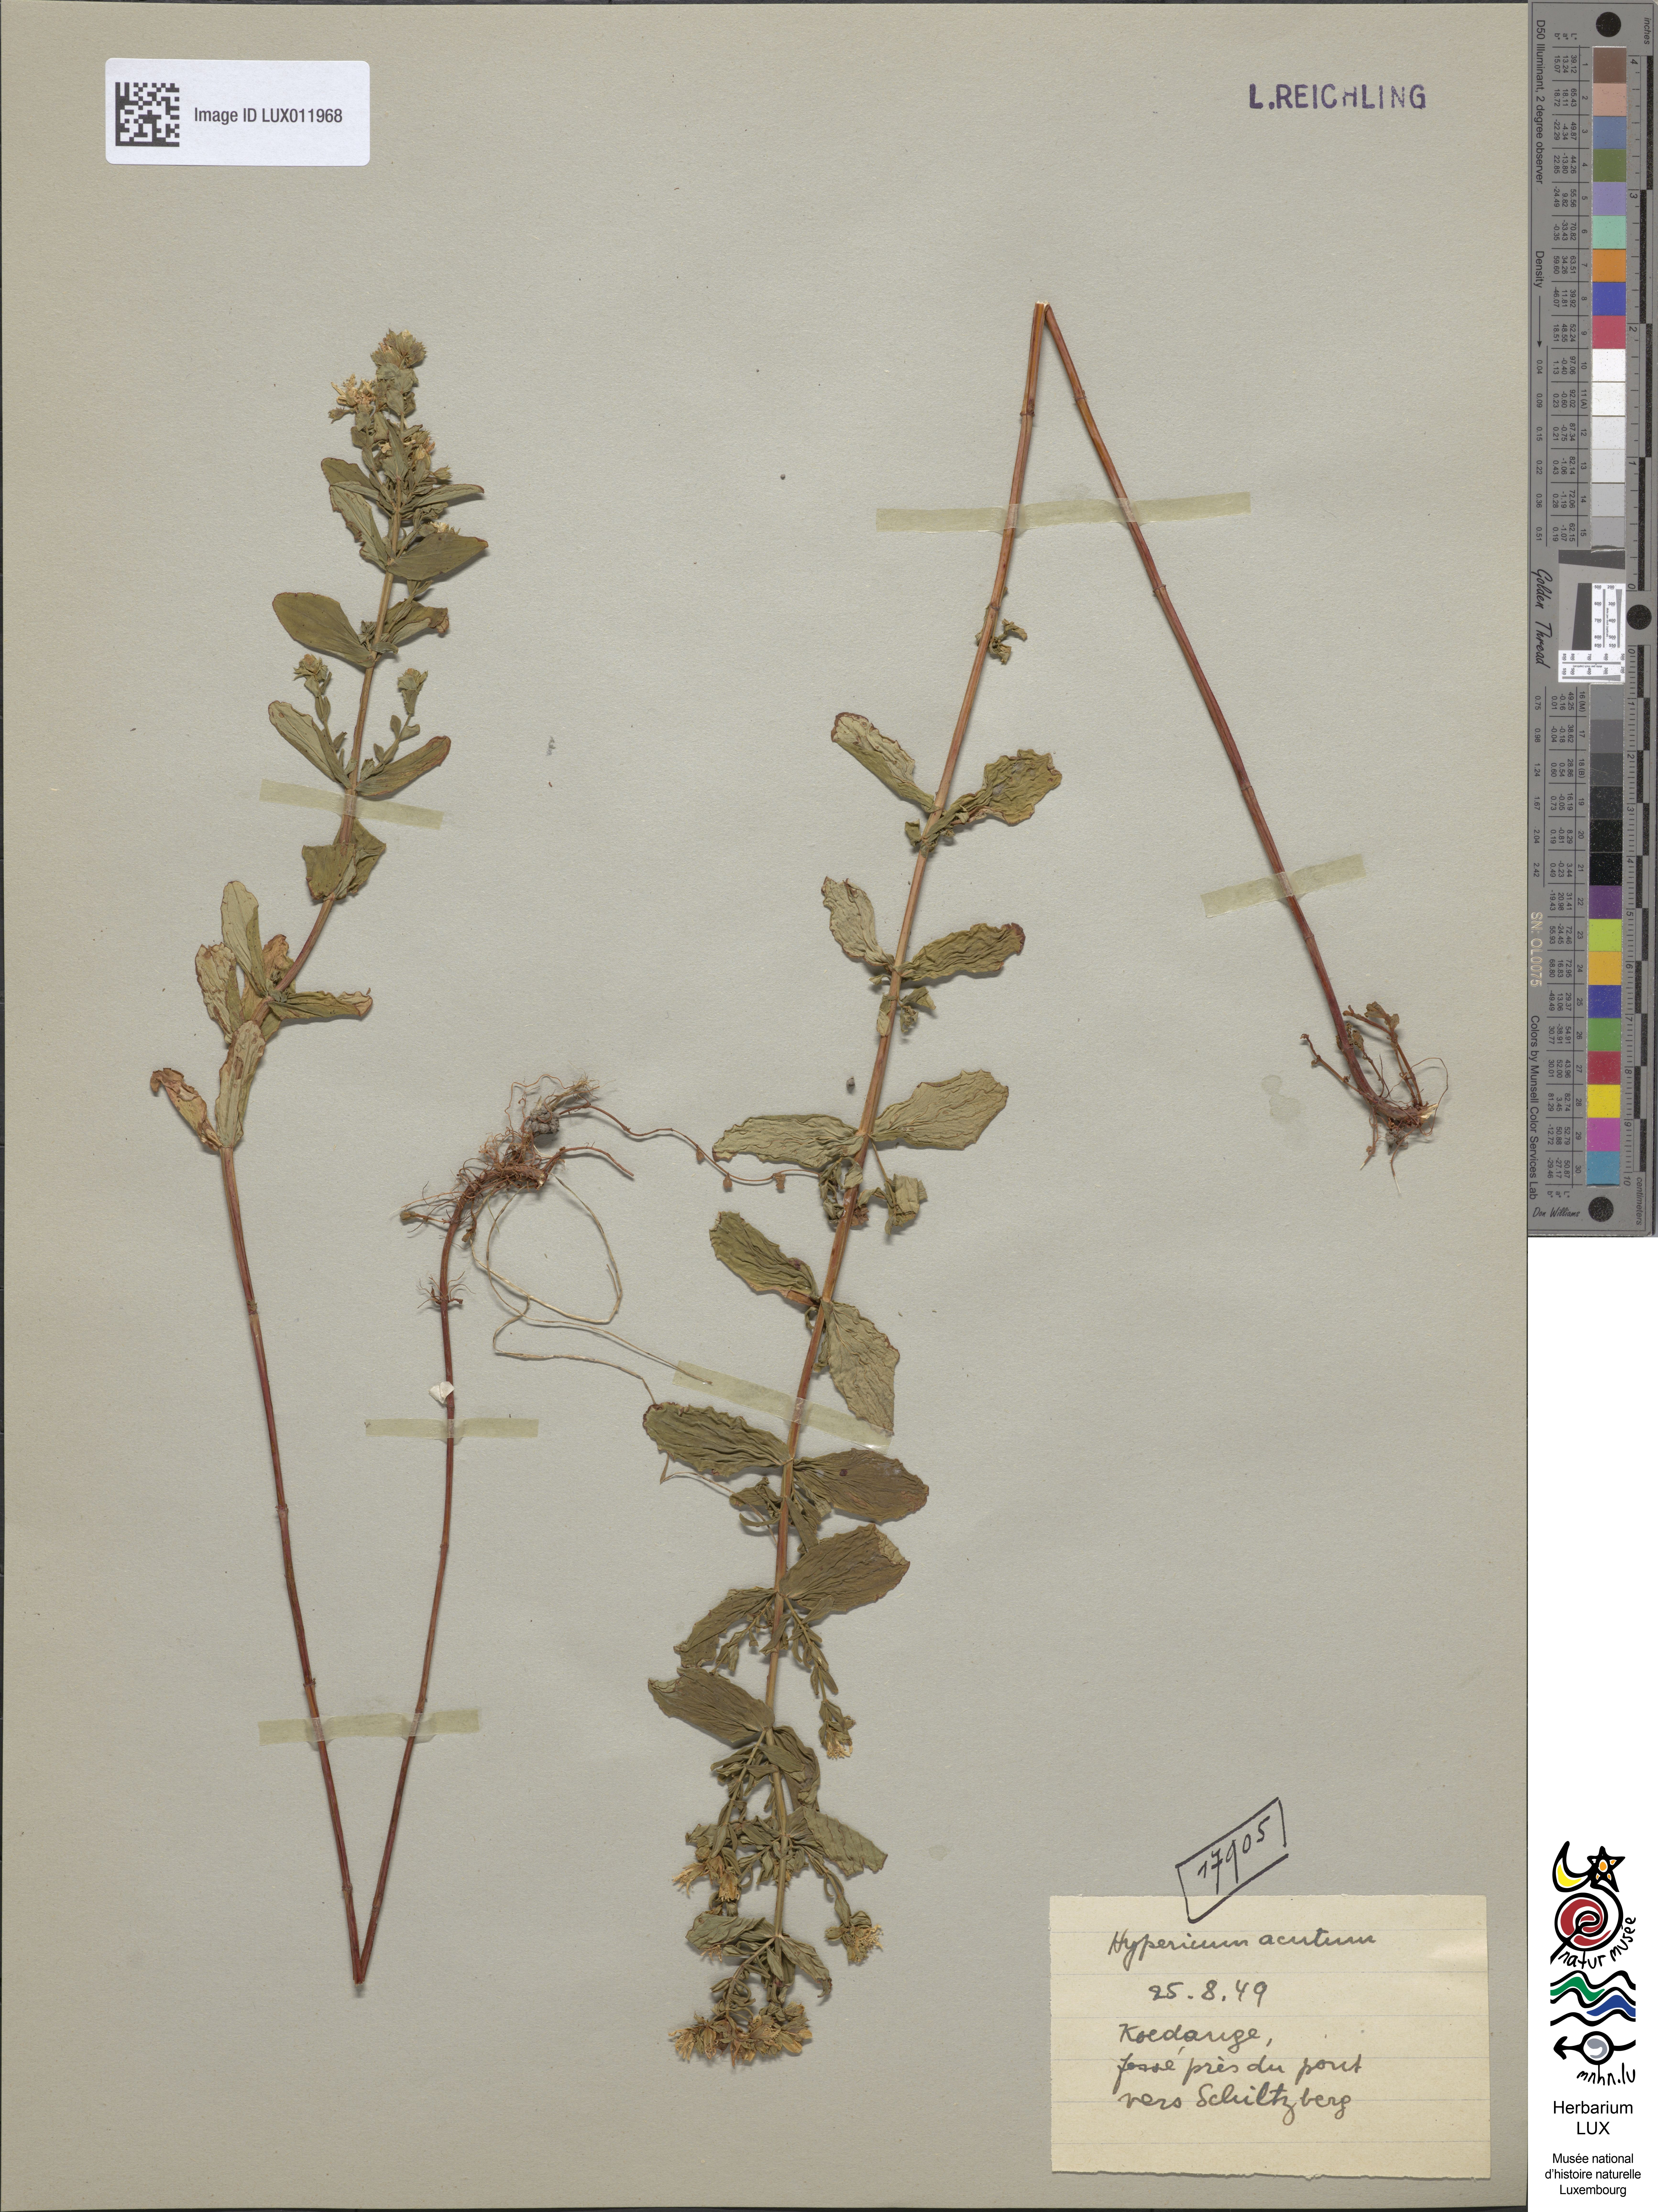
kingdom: Plantae
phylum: Tracheophyta
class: Magnoliopsida
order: Malpighiales
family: Hypericaceae
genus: Hypericum
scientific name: Hypericum tetrapterum
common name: Square-stalked st. john's-wort
